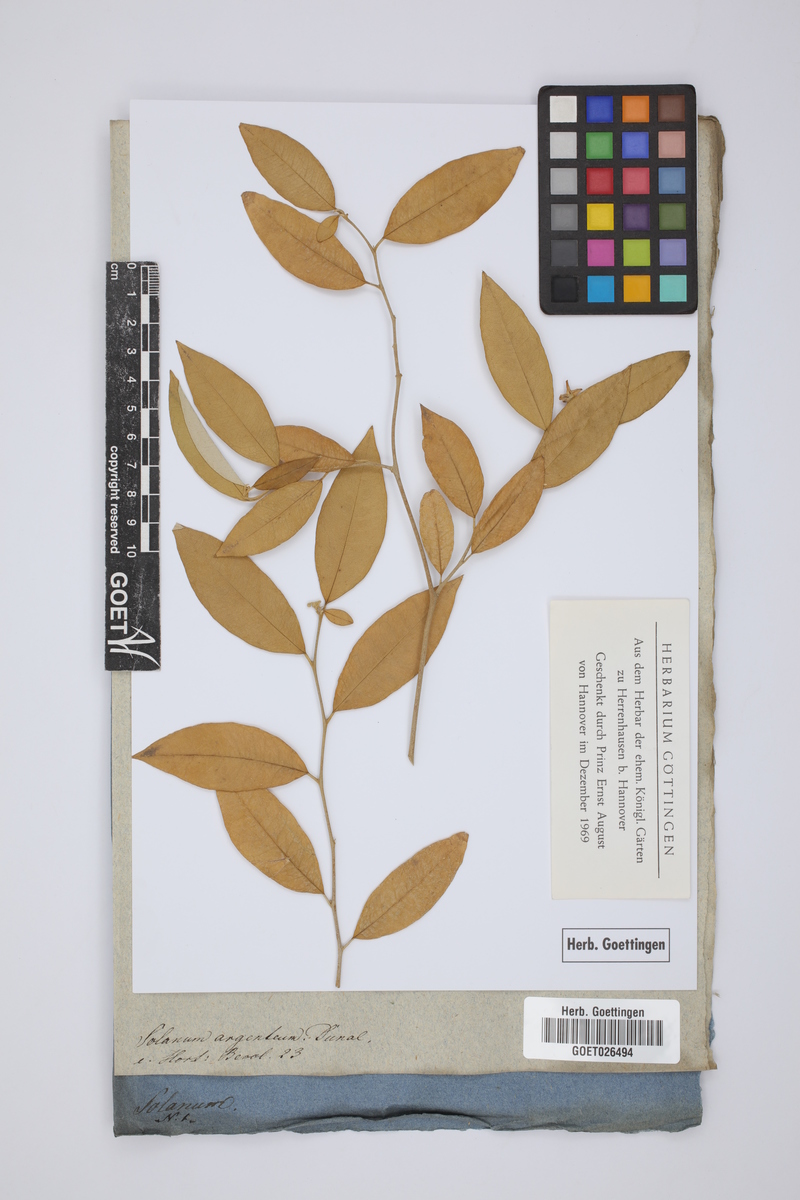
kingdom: Plantae
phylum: Tracheophyta
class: Magnoliopsida
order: Solanales
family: Solanaceae
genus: Solanum
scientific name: Solanum argenteum
